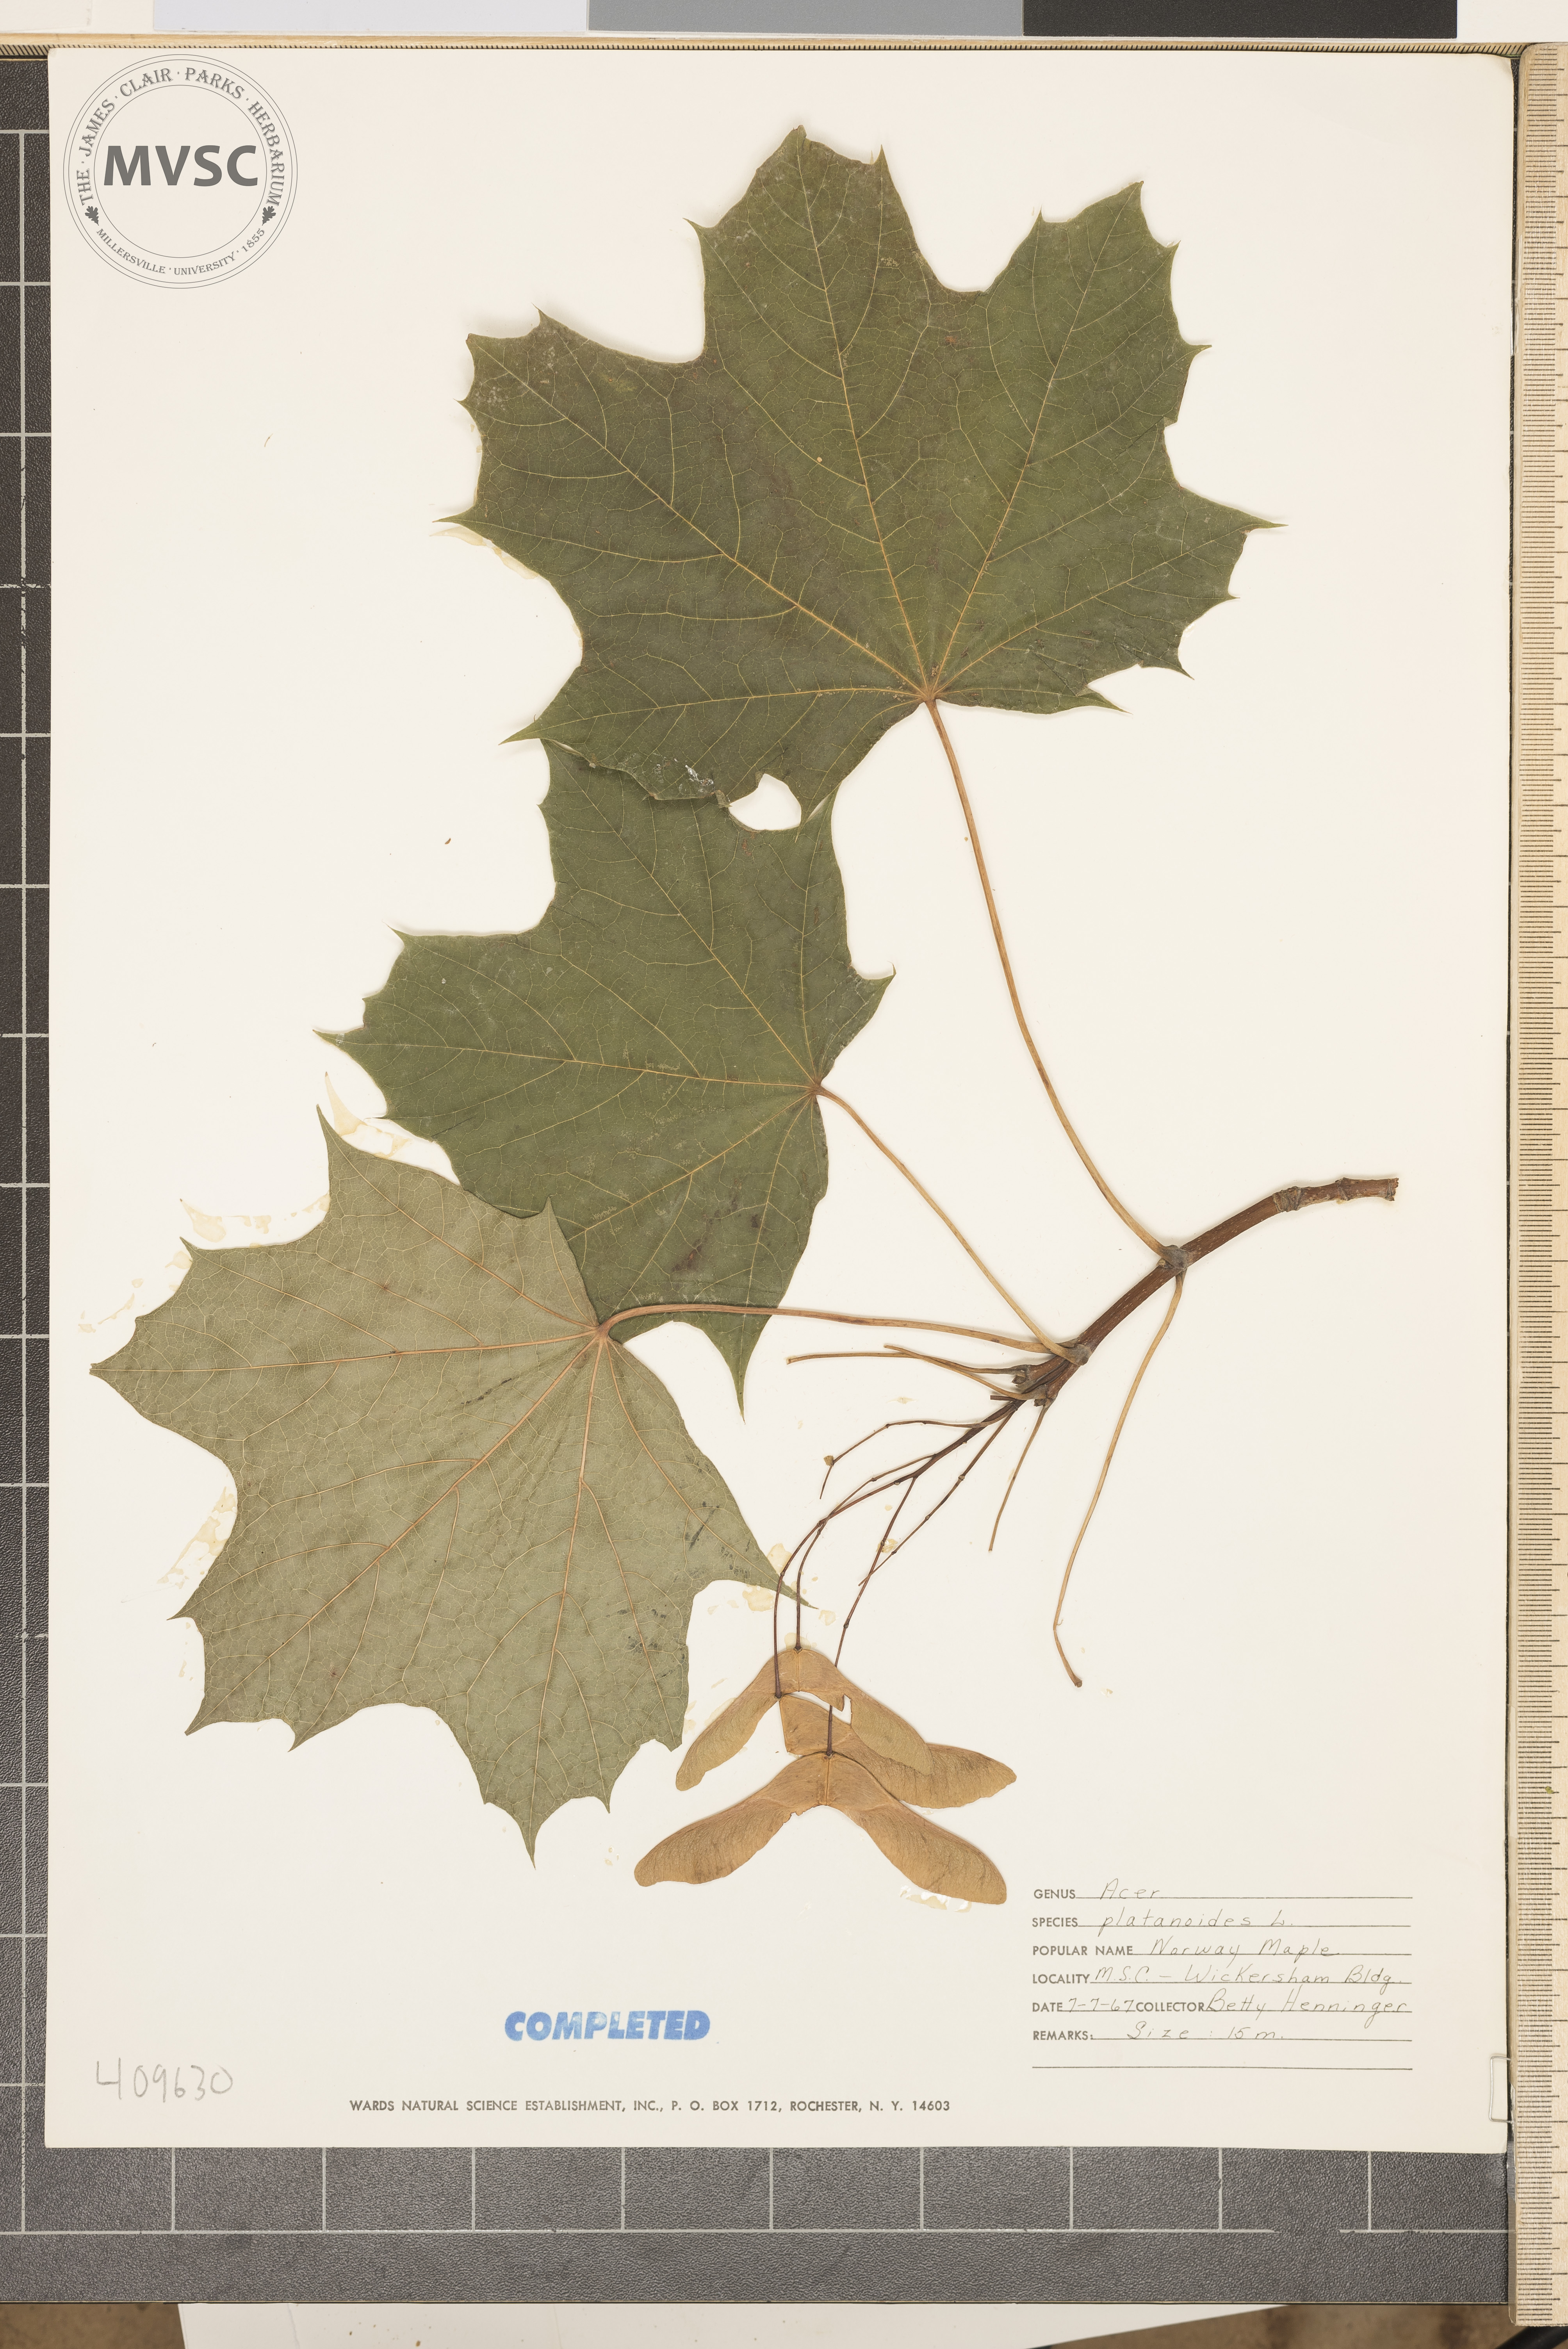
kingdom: Plantae
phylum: Tracheophyta
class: Magnoliopsida
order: Sapindales
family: Sapindaceae
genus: Acer
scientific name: Acer platanoides
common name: Norway maple
